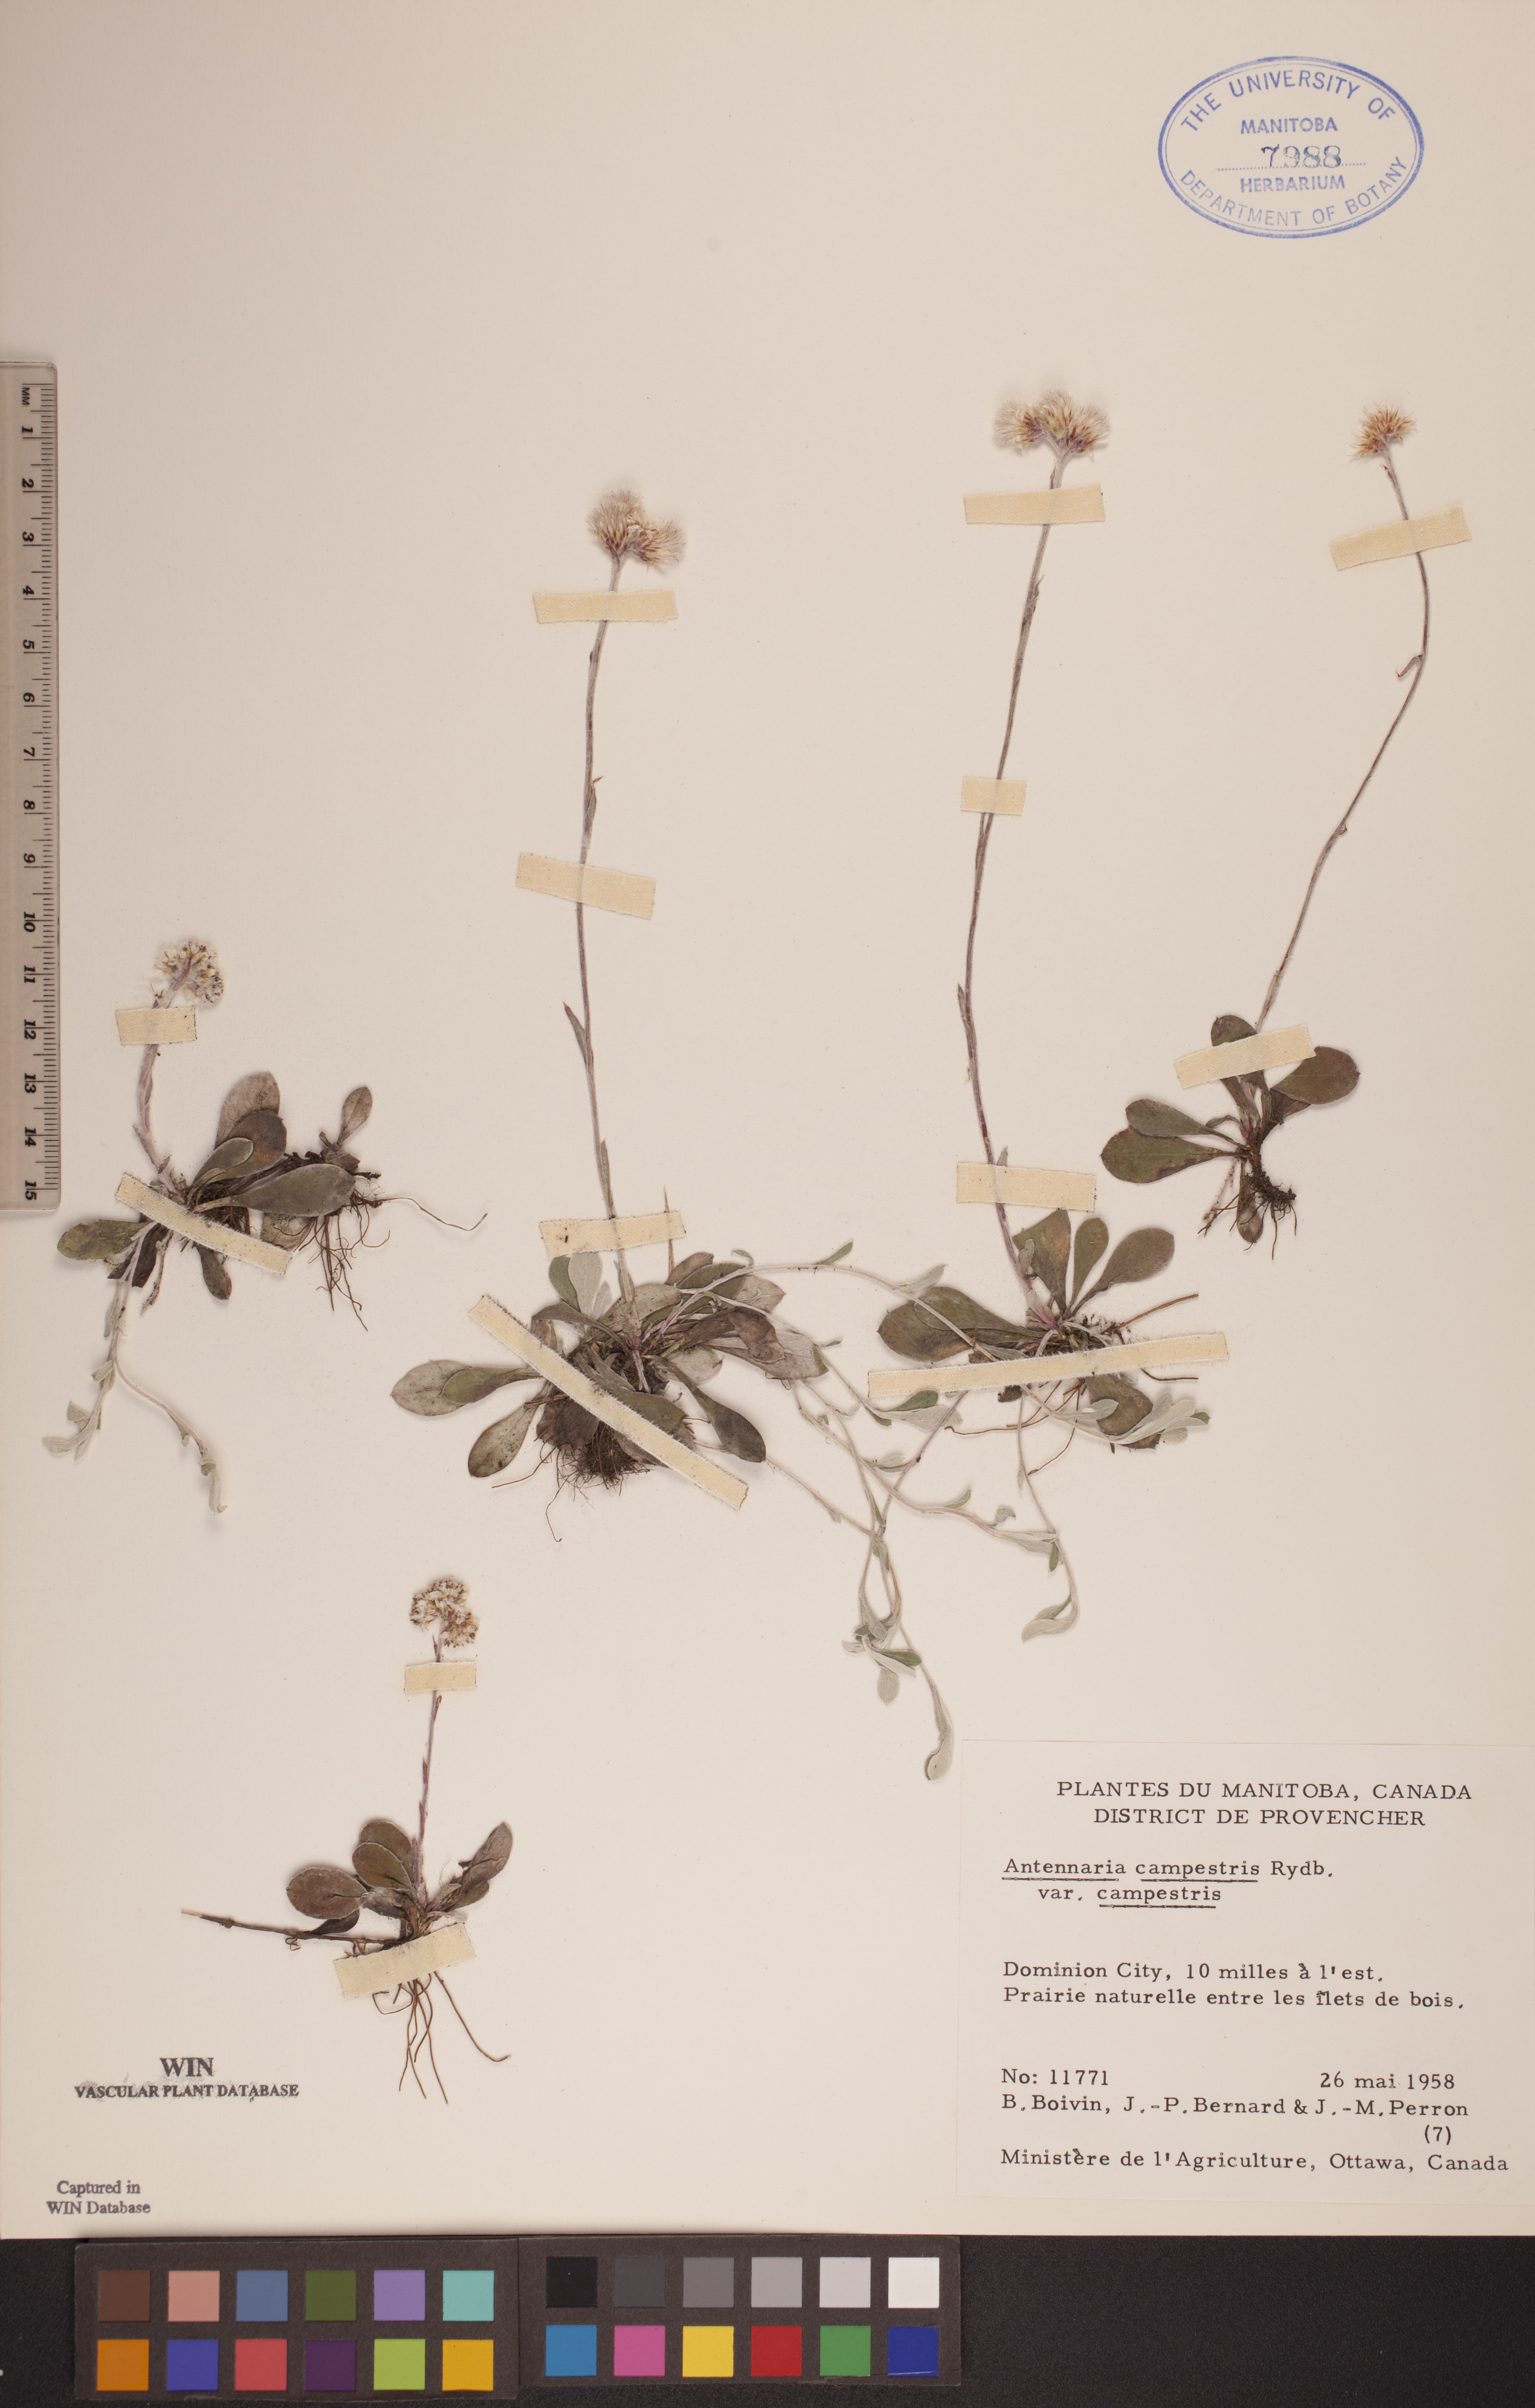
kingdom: Plantae
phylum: Tracheophyta
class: Magnoliopsida
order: Asterales
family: Asteraceae
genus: Antennaria
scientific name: Antennaria neglecta
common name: Field pussytoes
